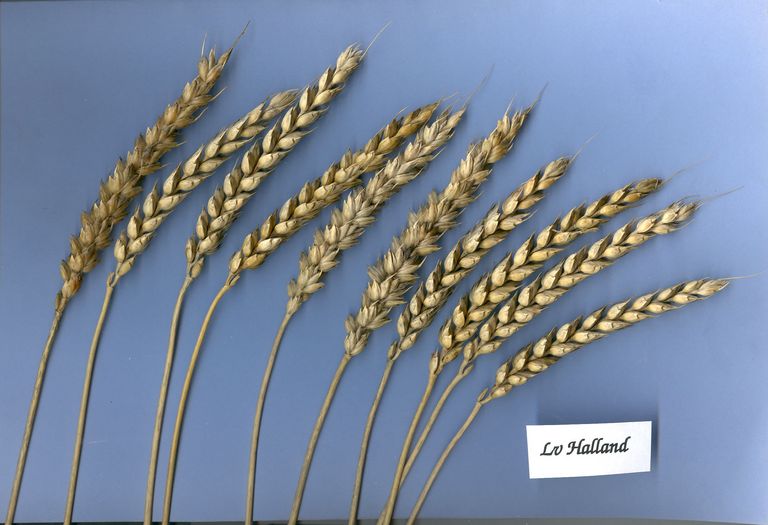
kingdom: Plantae
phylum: Tracheophyta
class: Liliopsida
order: Poales
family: Poaceae
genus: Triticum
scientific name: Triticum aestivum
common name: Common wheat
